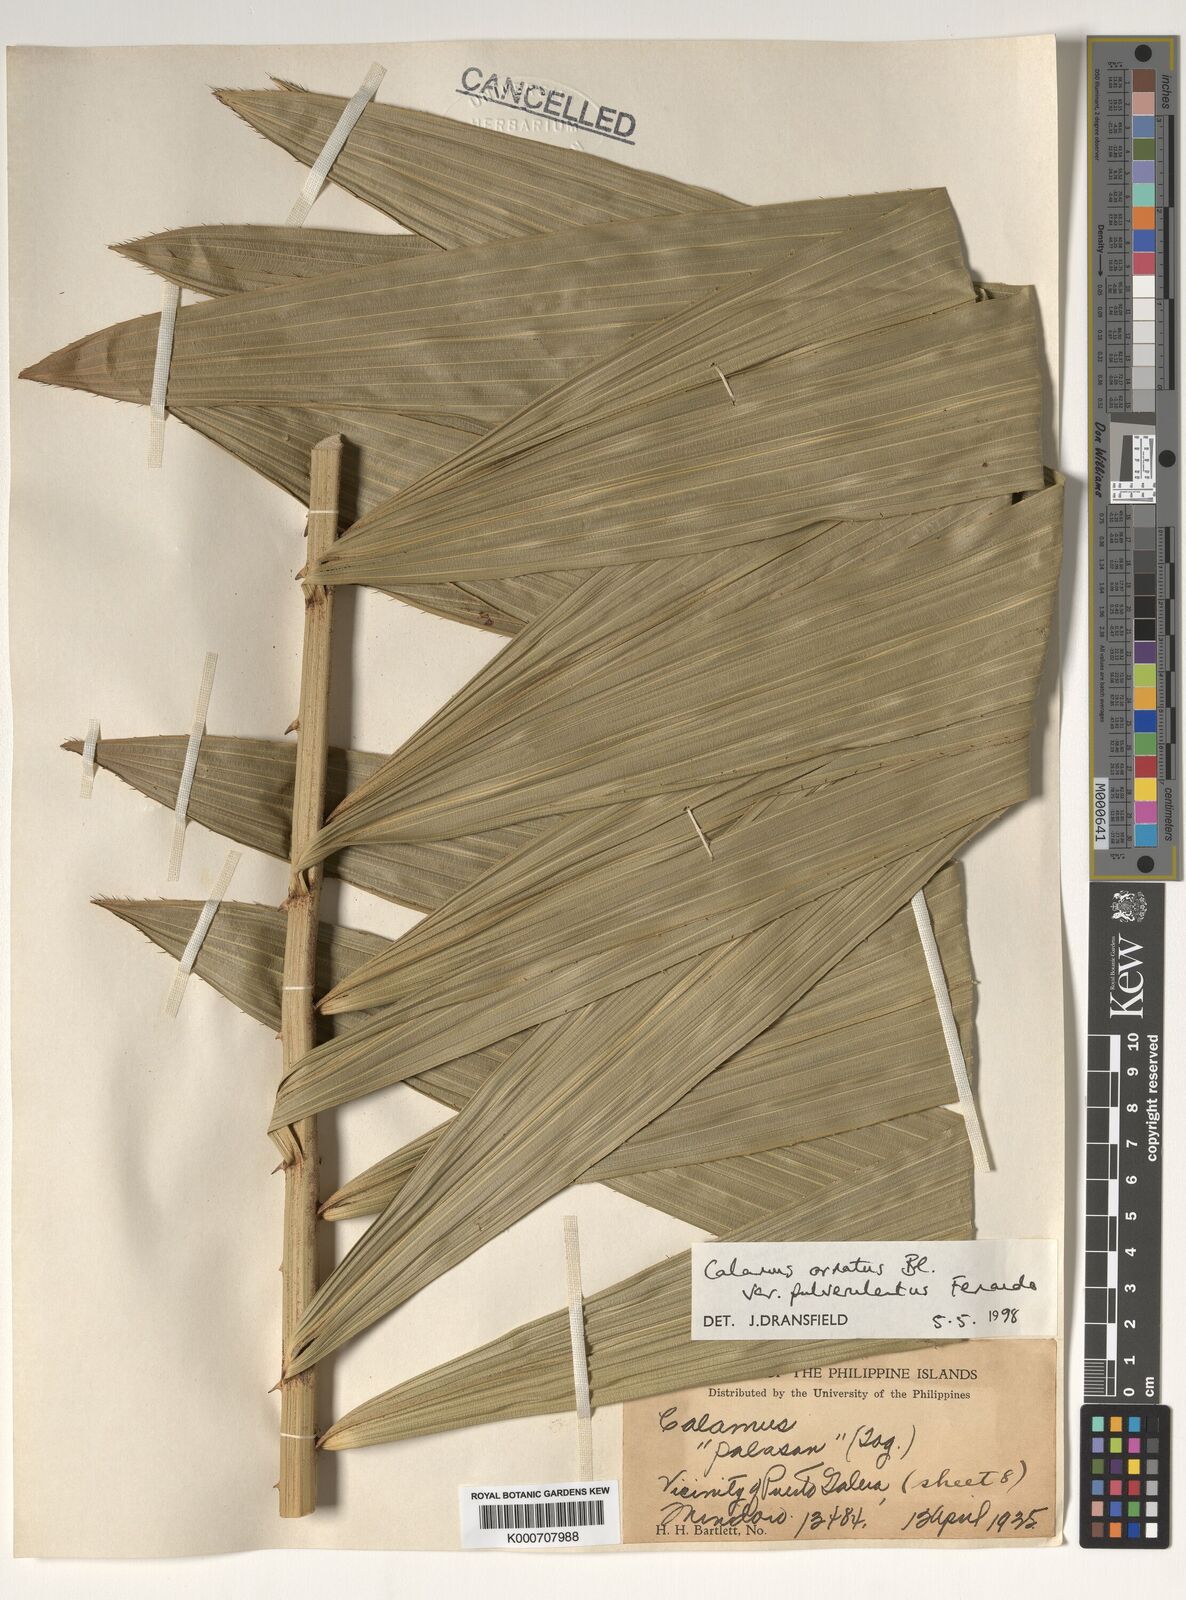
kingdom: Plantae
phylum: Tracheophyta
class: Liliopsida
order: Arecales
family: Arecaceae
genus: Calamus
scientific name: Calamus ornatus
